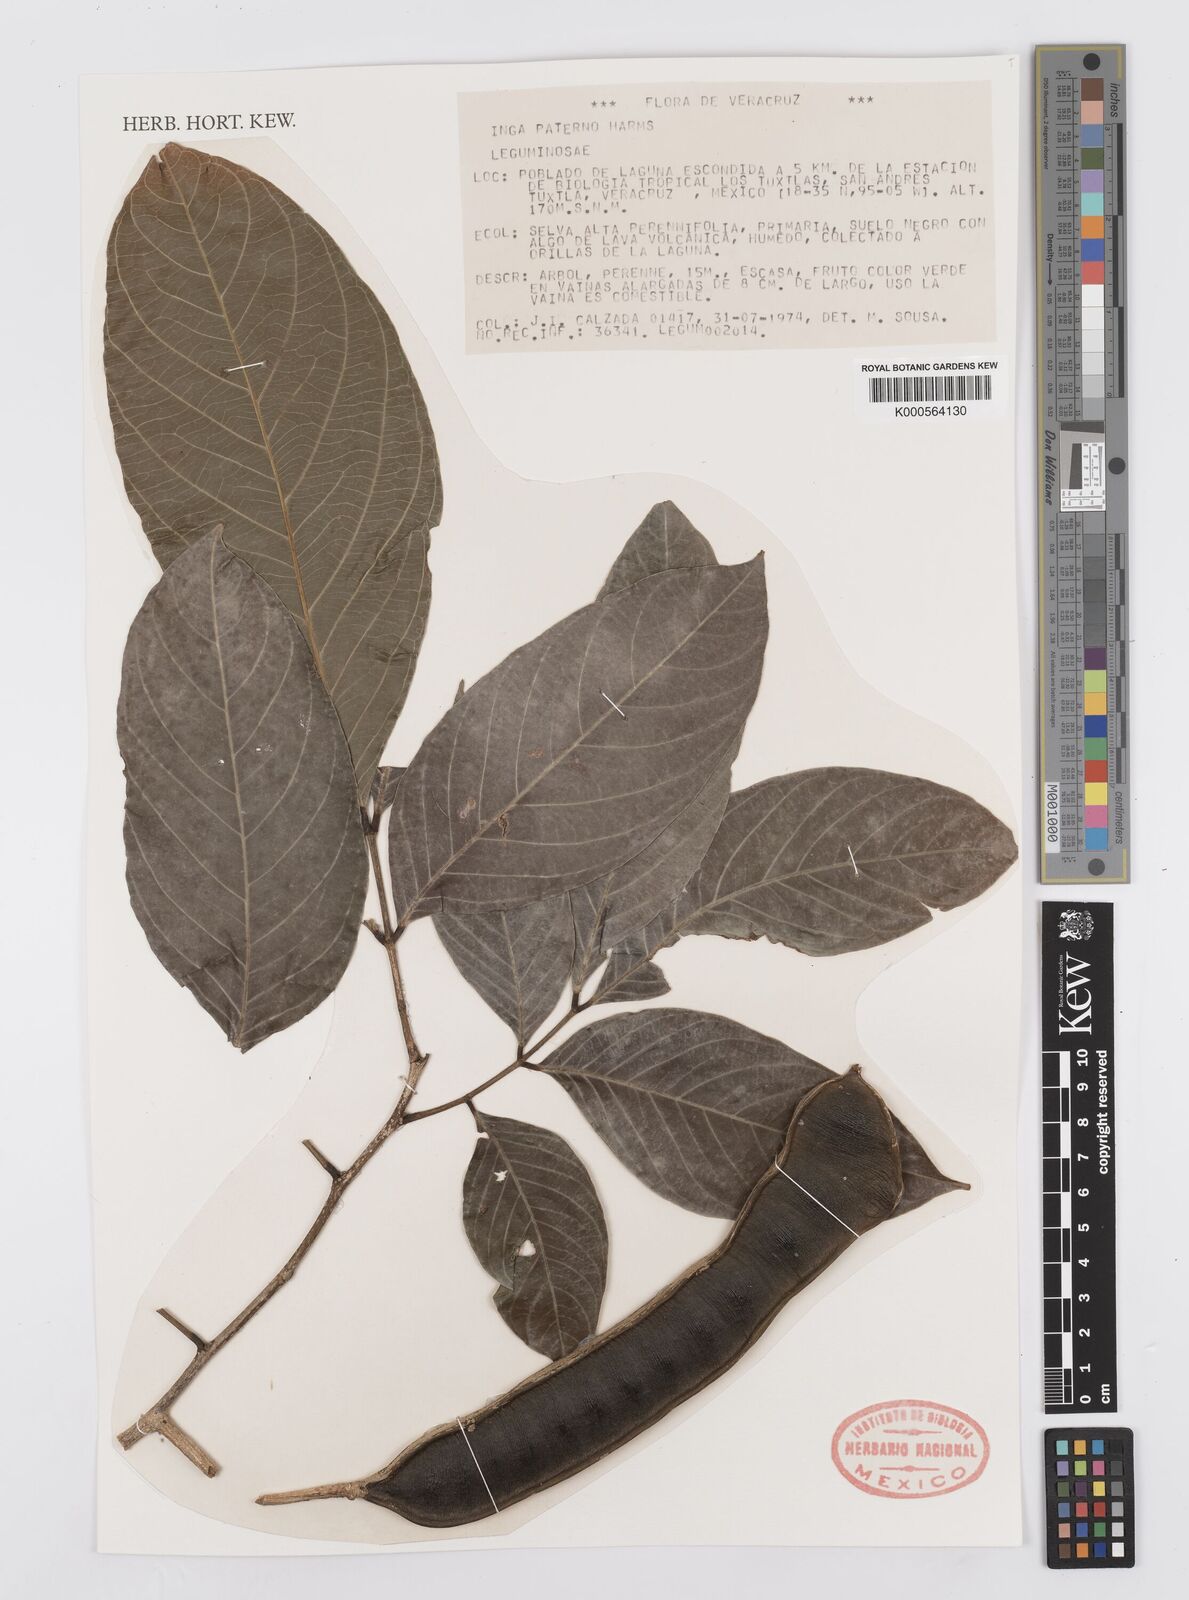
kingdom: Plantae
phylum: Tracheophyta
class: Magnoliopsida
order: Fabales
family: Fabaceae
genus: Inga
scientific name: Inga paterno
